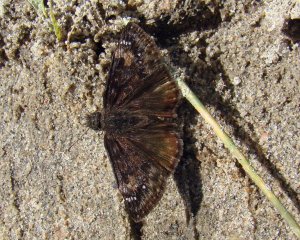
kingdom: Animalia
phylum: Arthropoda
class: Insecta
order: Lepidoptera
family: Hesperiidae
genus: Gesta
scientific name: Gesta
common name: Wild Indigo Duskywing
